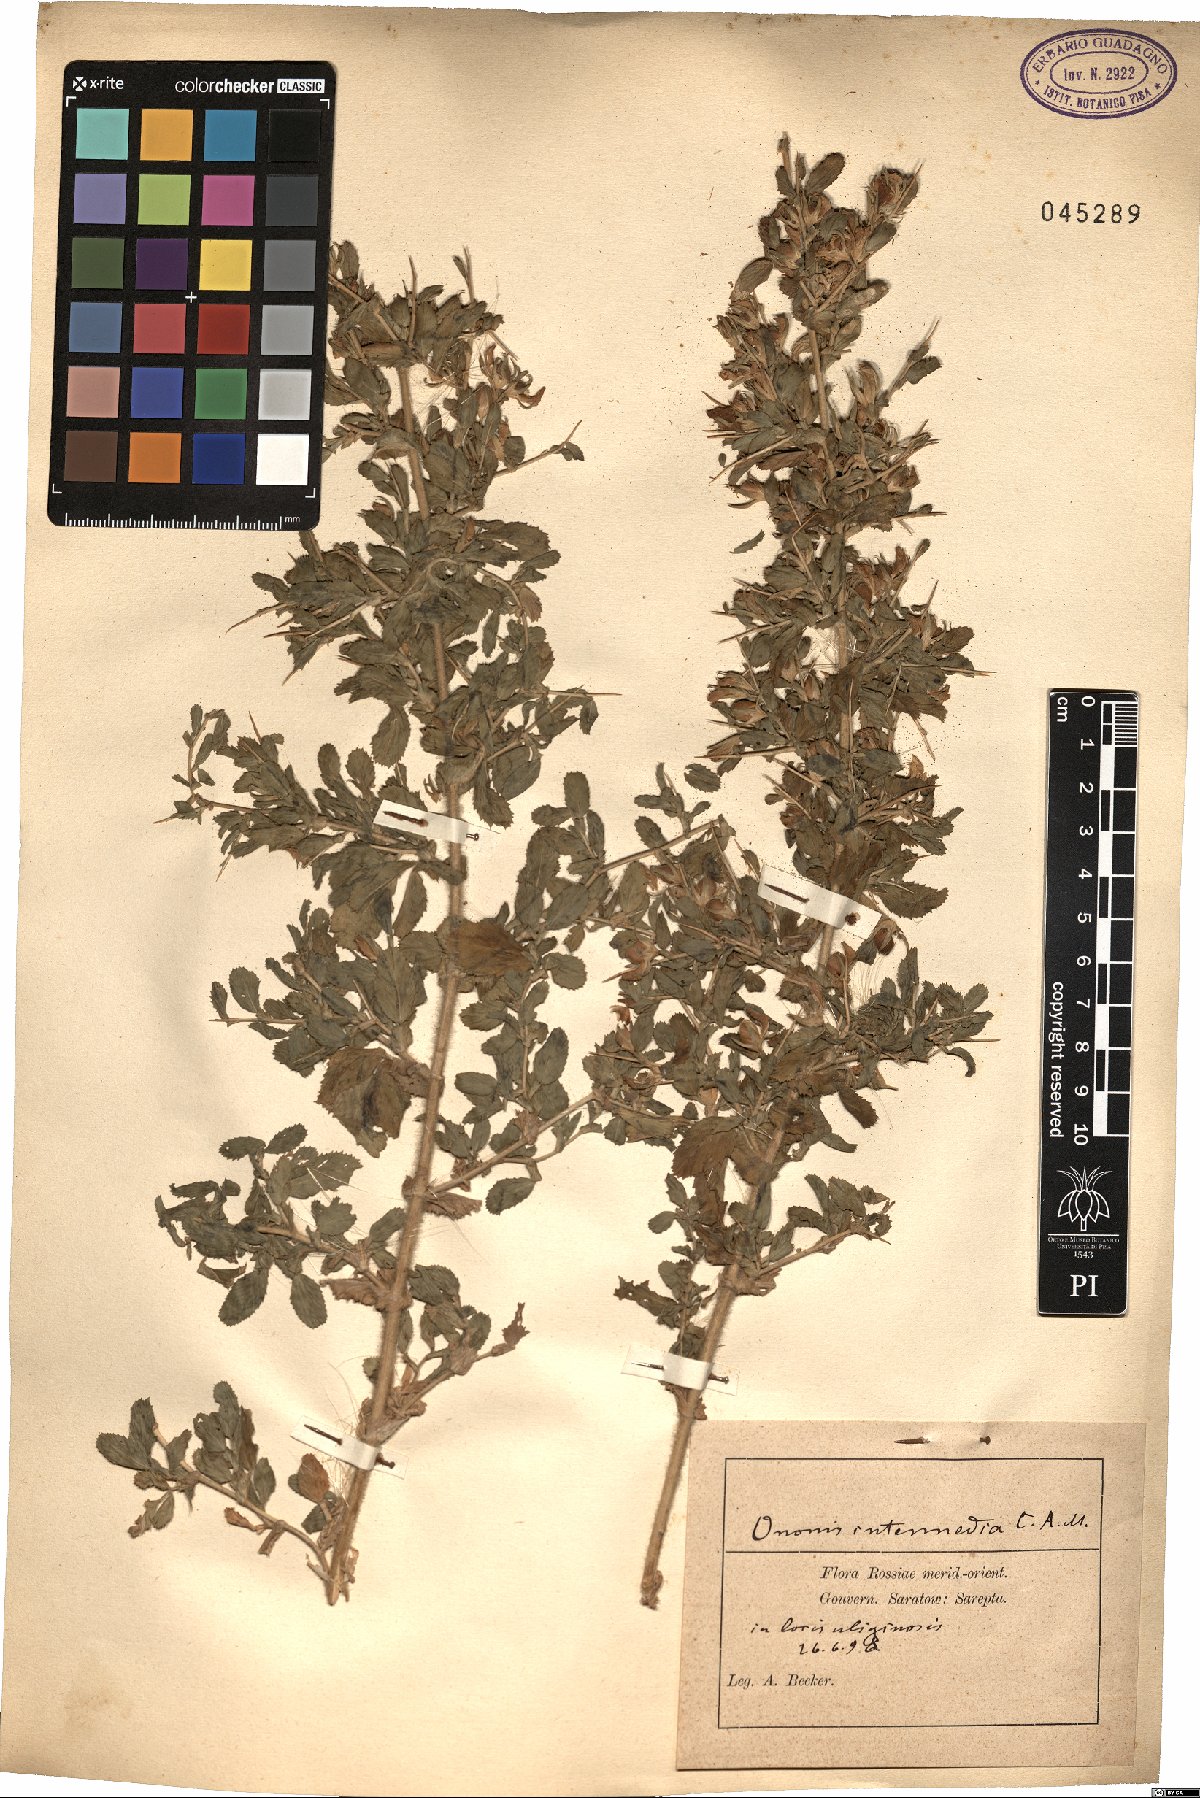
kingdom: Plantae
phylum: Tracheophyta
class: Magnoliopsida
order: Fabales
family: Fabaceae
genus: Ononis
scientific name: Ononis intermedia
